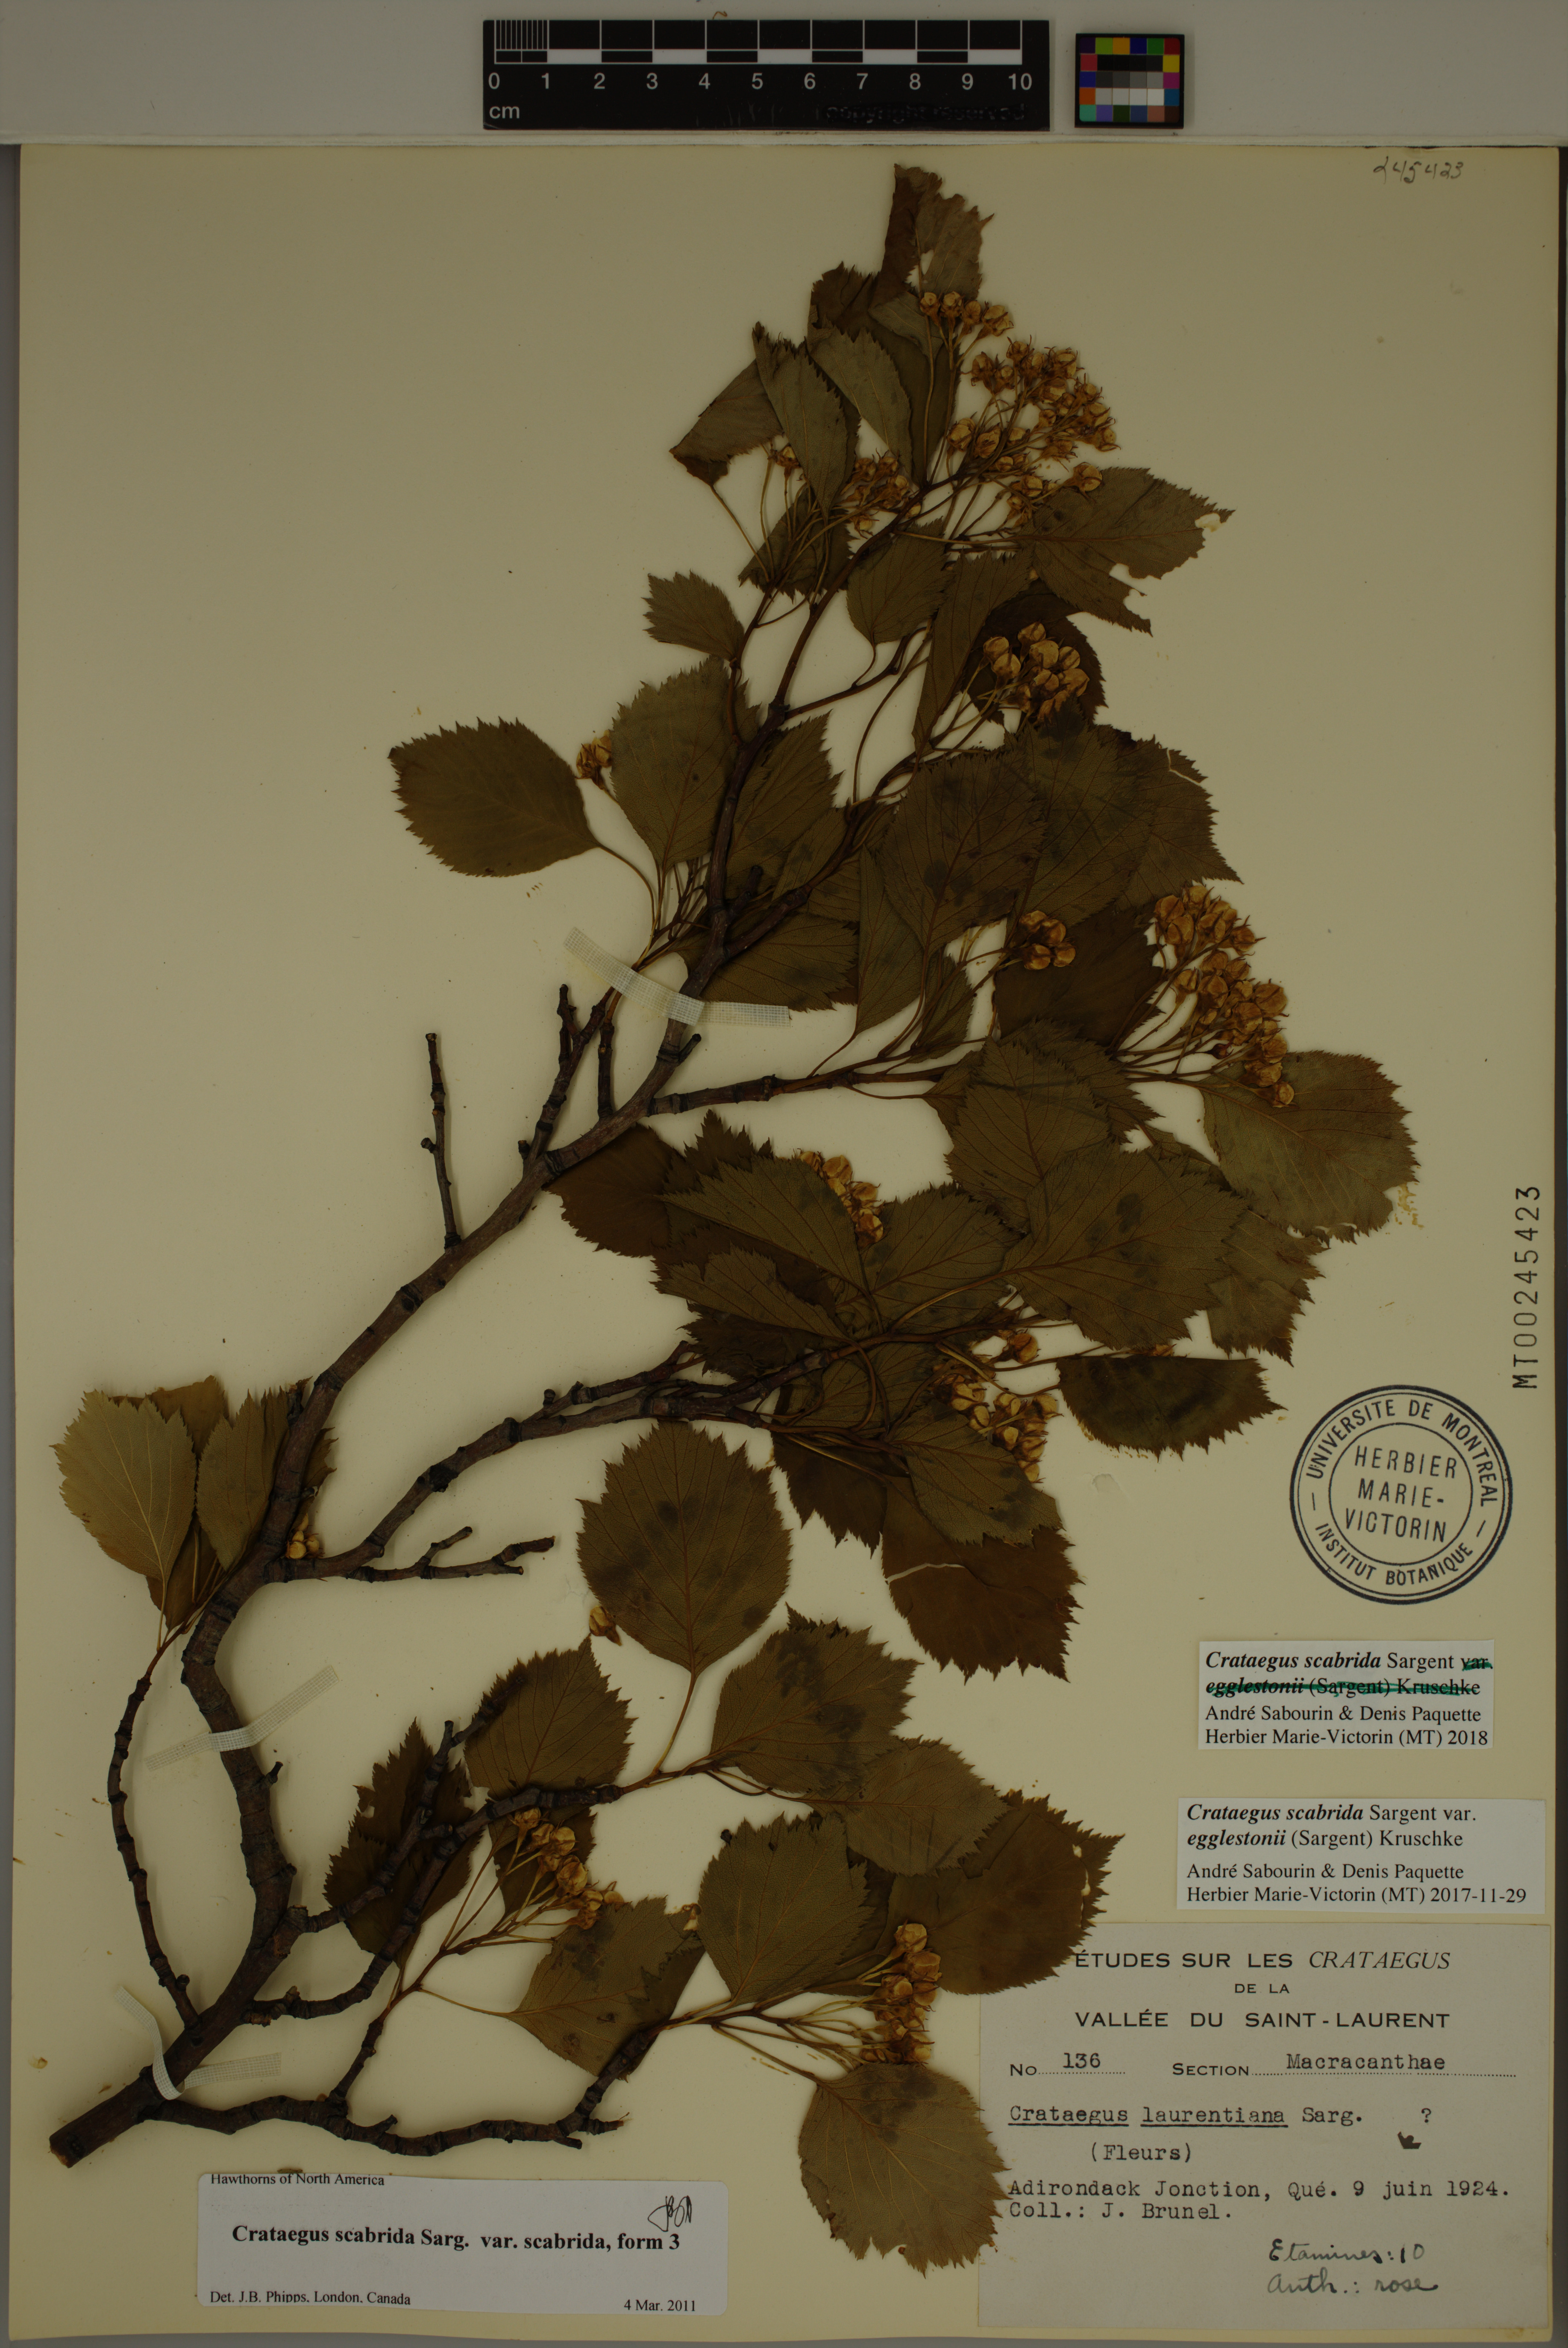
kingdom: Plantae
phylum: Tracheophyta
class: Magnoliopsida
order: Rosales
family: Rosaceae
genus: Crataegus
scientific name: Crataegus scabrida
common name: Rough hawthorn
